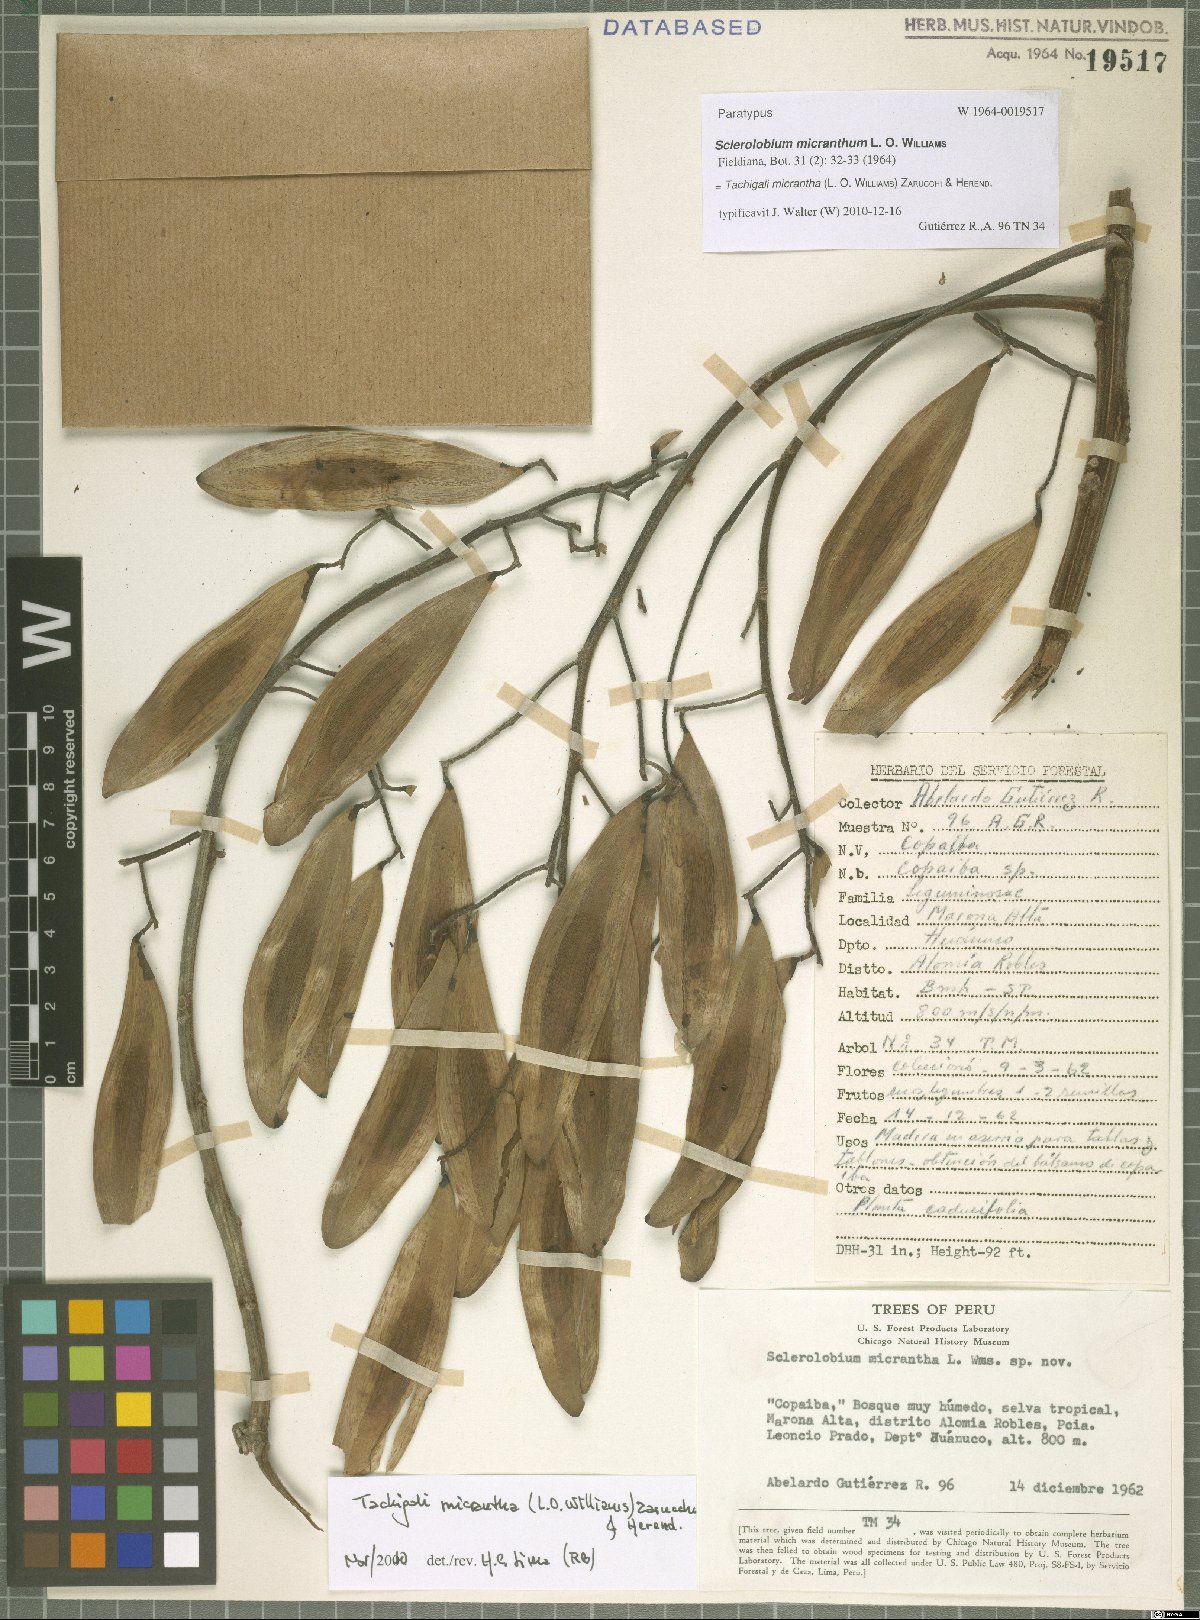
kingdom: Plantae
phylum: Tracheophyta
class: Magnoliopsida
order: Fabales
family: Fabaceae
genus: Tachigali
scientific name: Tachigali micrantha
